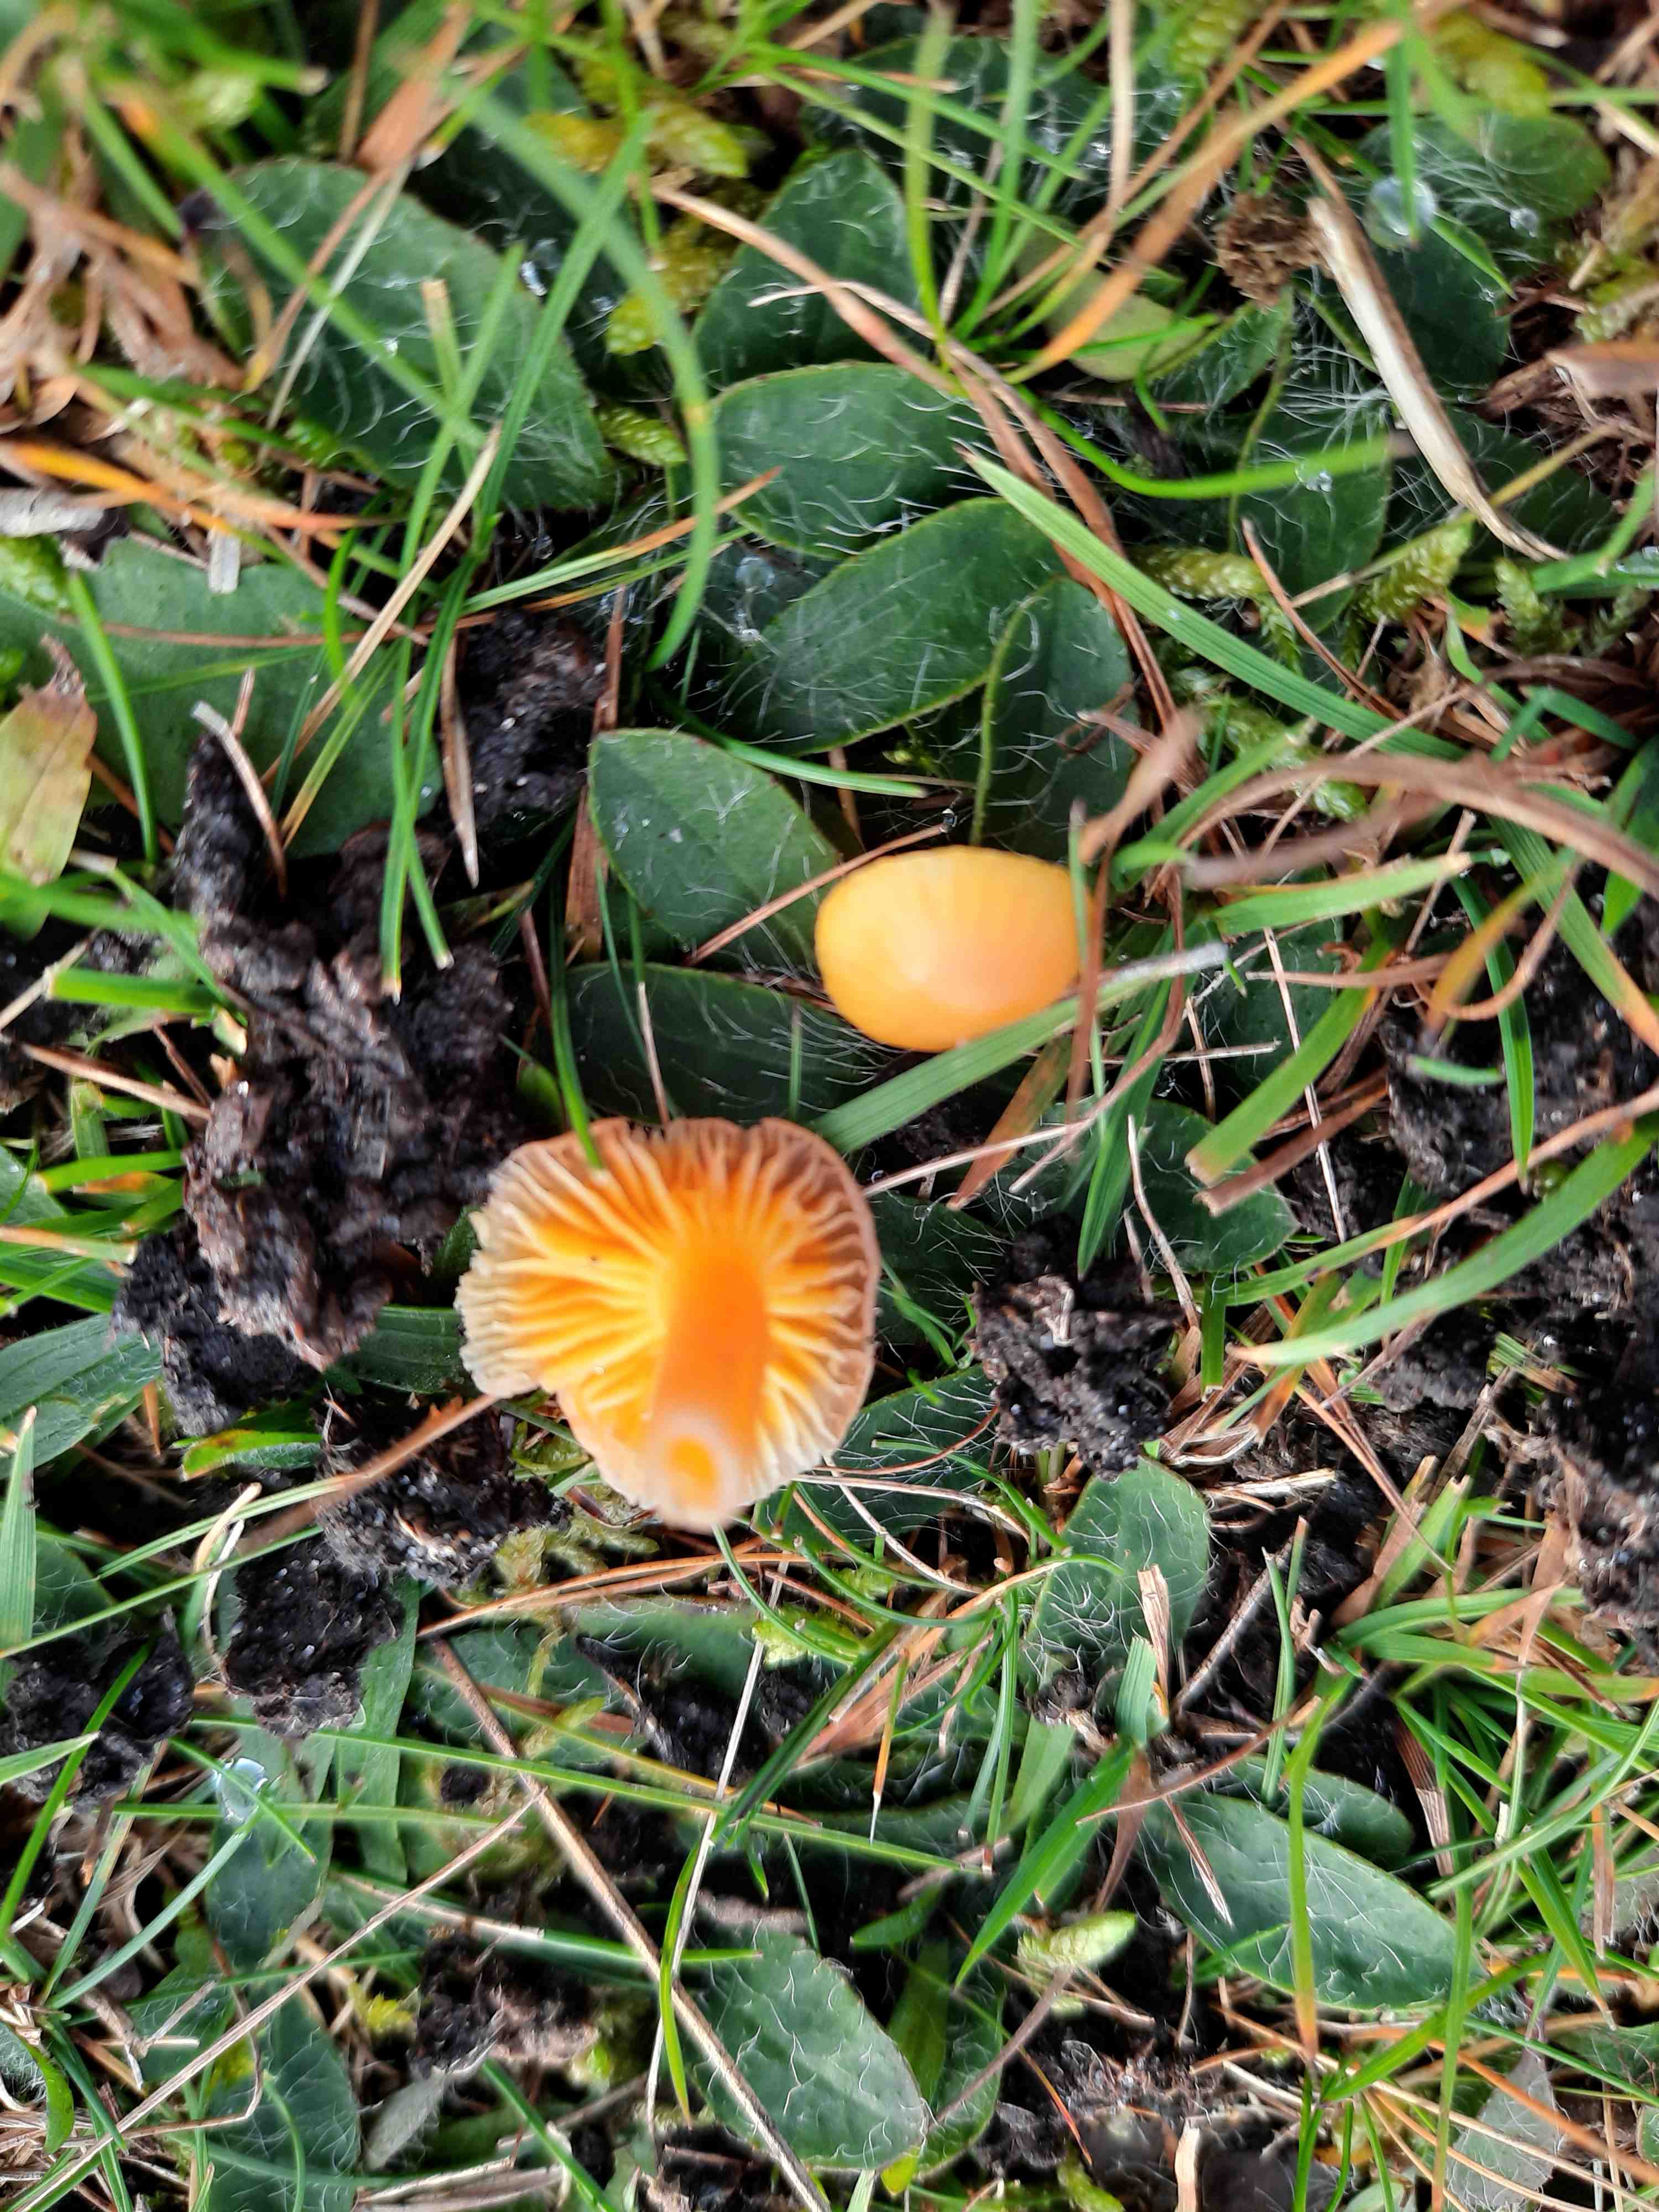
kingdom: Fungi
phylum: Basidiomycota
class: Agaricomycetes
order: Agaricales
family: Hygrophoraceae
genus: Hygrocybe
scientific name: Hygrocybe ceracea
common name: voksgul vokshat
